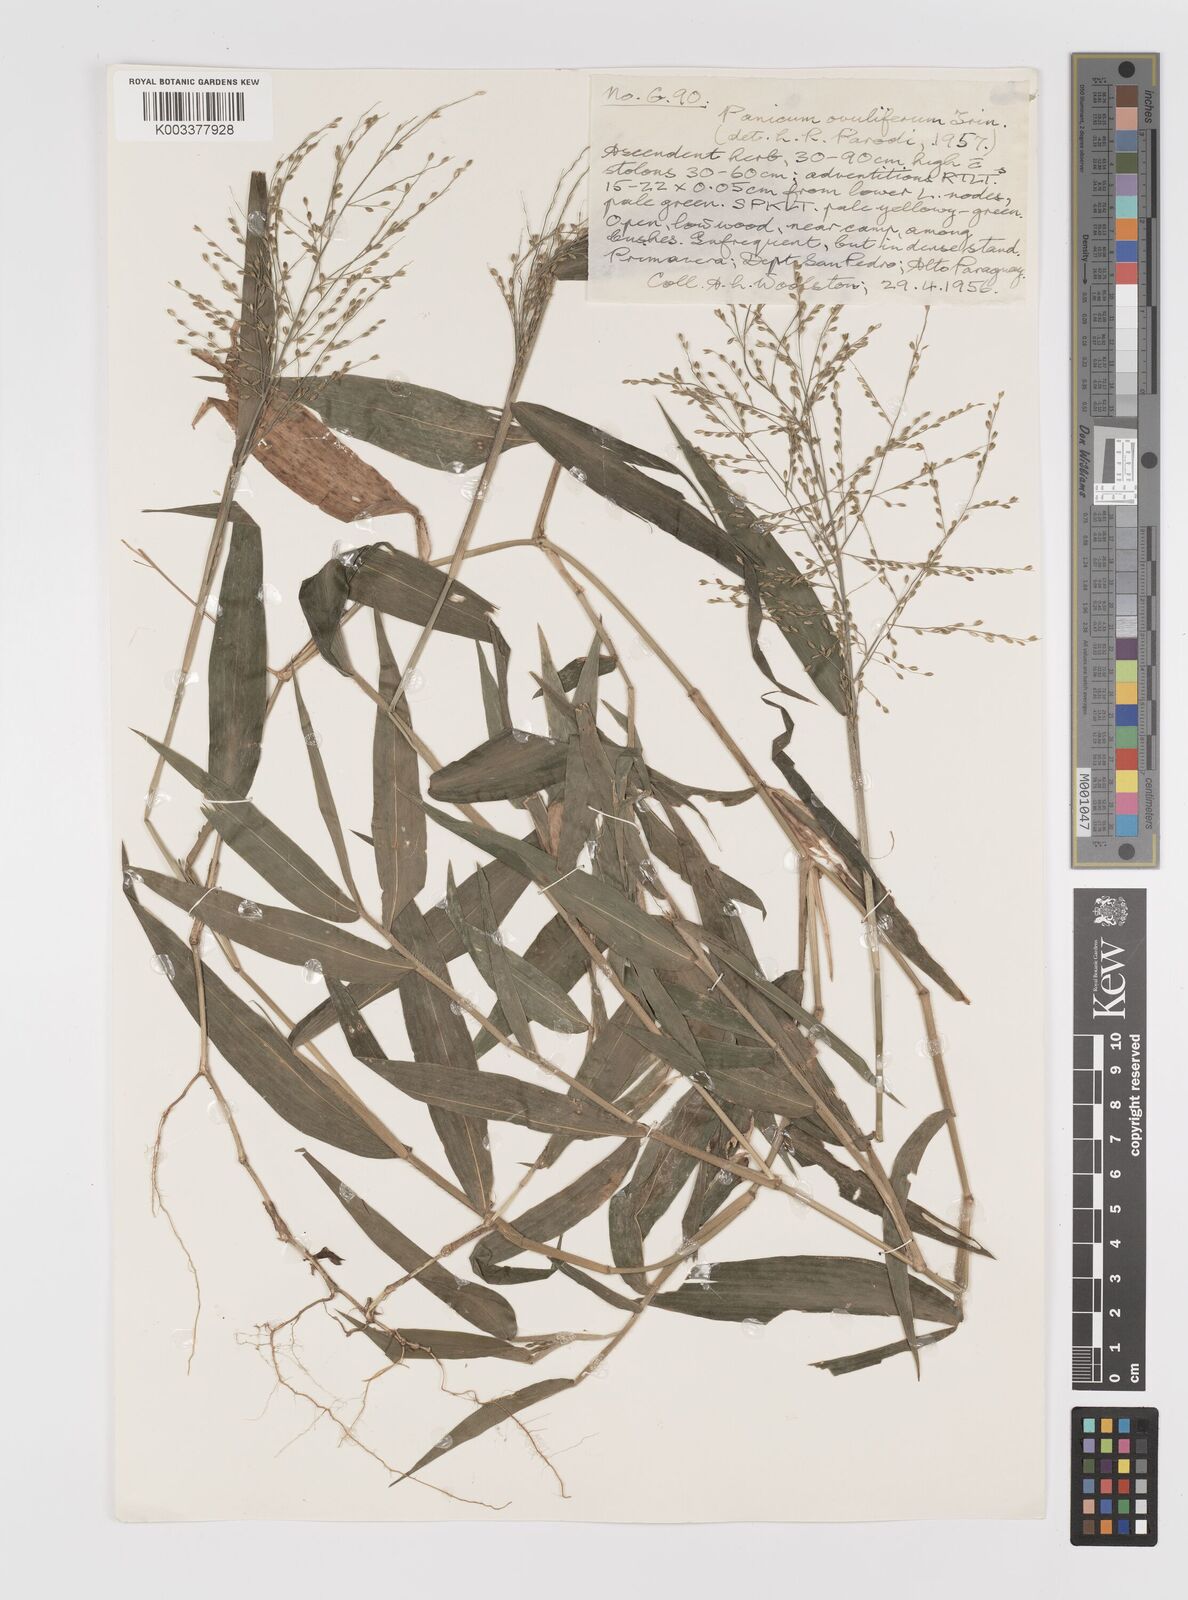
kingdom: Plantae
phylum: Tracheophyta
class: Liliopsida
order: Poales
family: Poaceae
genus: Parodiophyllochloa
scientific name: Parodiophyllochloa ovulifera
